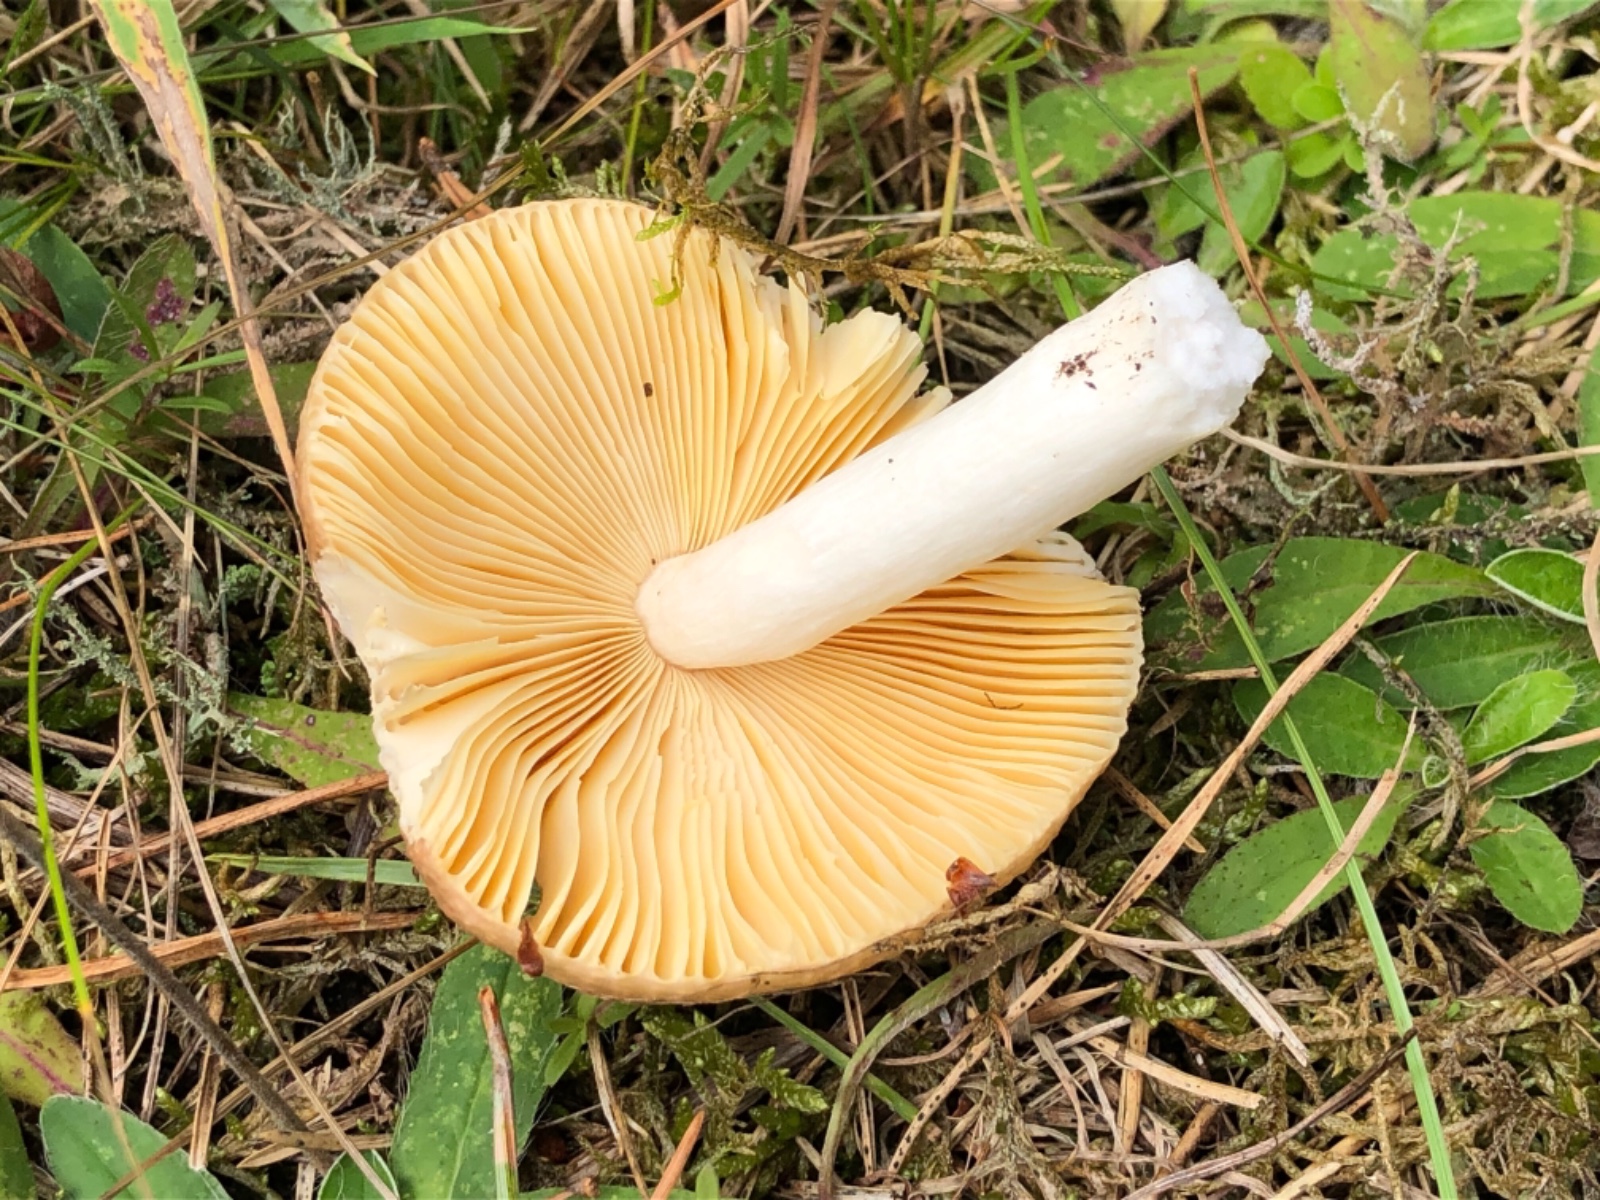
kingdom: Fungi
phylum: Basidiomycota
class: Agaricomycetes
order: Russulales
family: Russulaceae
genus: Russula
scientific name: Russula cessans
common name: fyrre-skørhat
